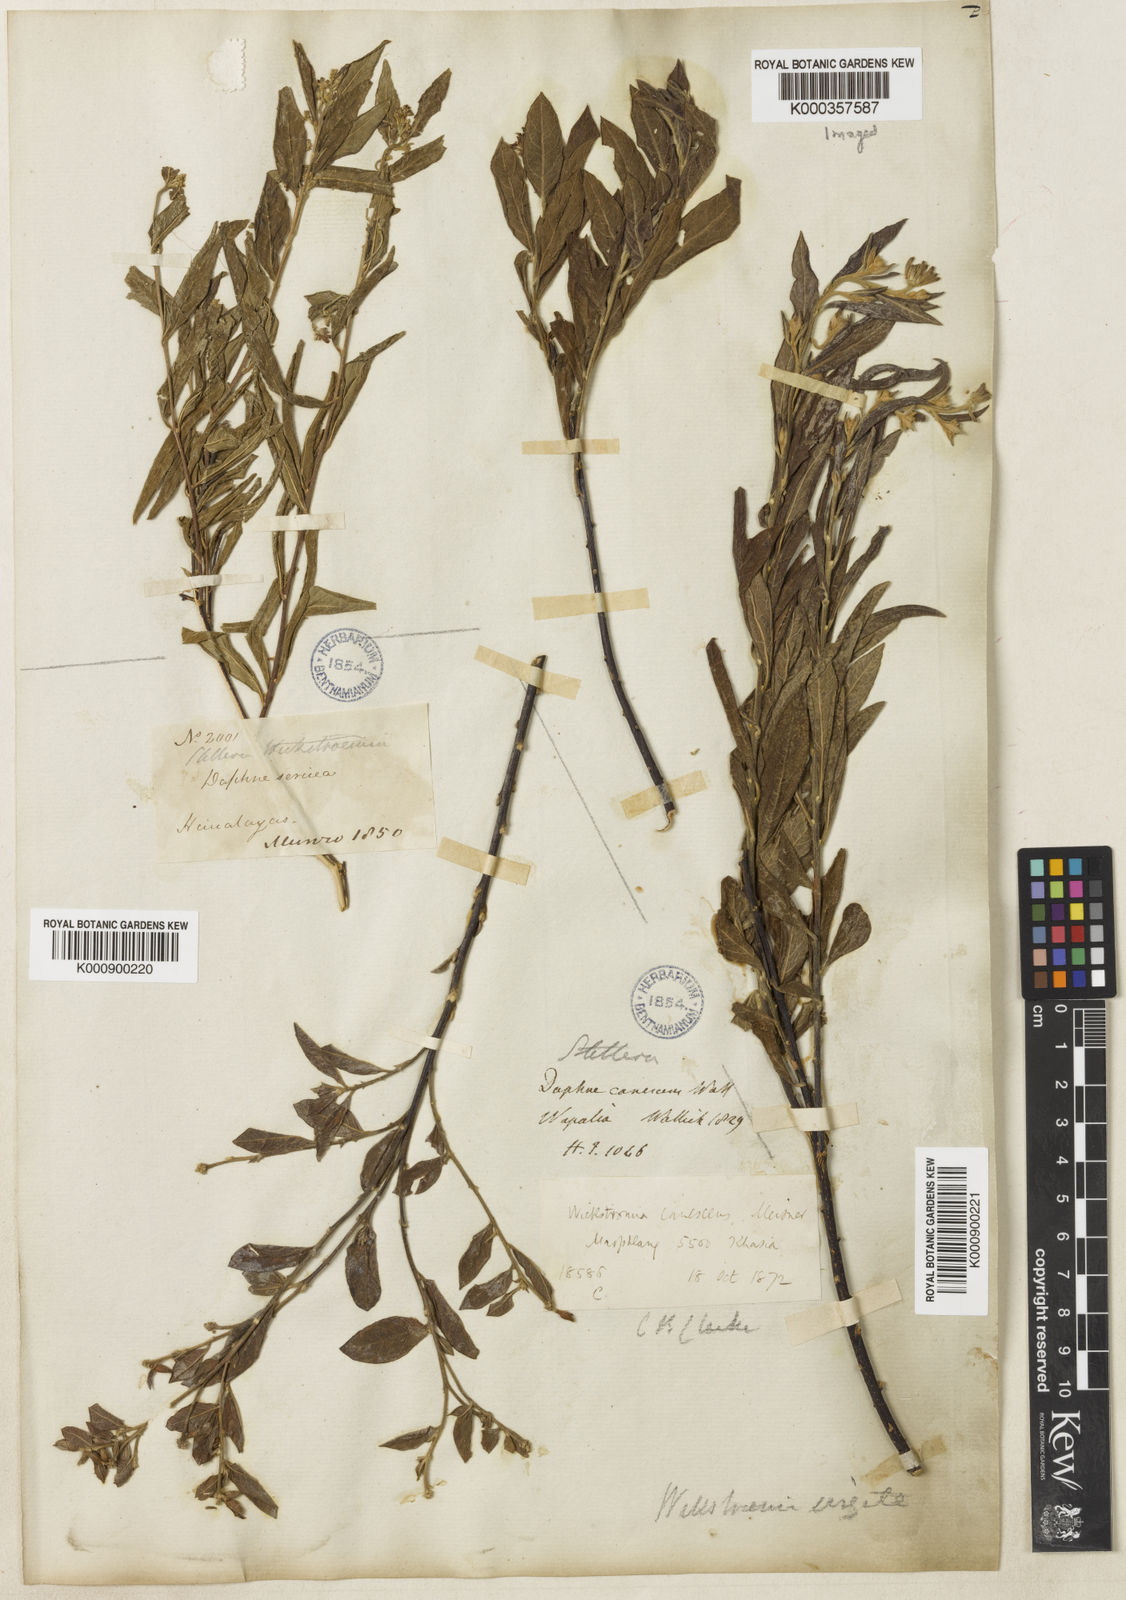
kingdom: Plantae
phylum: Tracheophyta
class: Magnoliopsida
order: Malvales
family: Thymelaeaceae
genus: Wikstroemia
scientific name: Wikstroemia canescens
